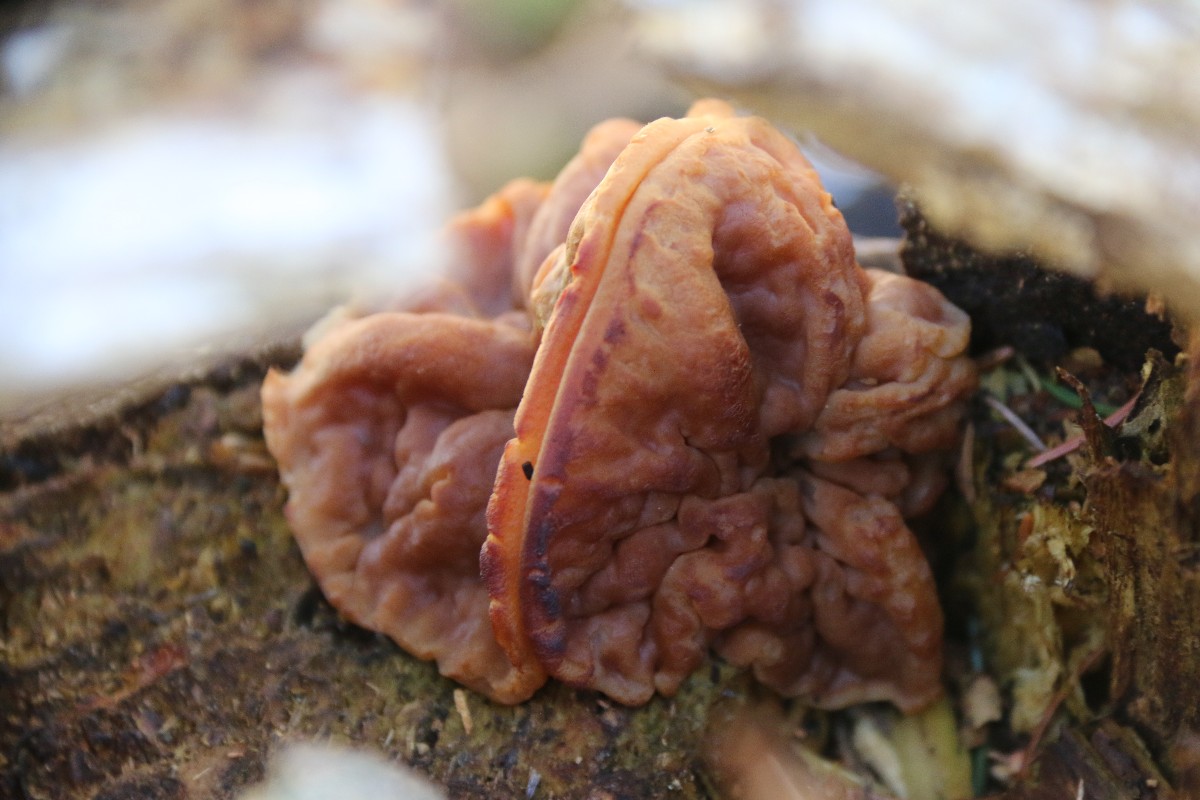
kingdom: Fungi
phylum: Ascomycota
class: Pezizomycetes
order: Pezizales
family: Discinaceae
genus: Discina
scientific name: Discina ancilis
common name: udbredt stenmorkel
